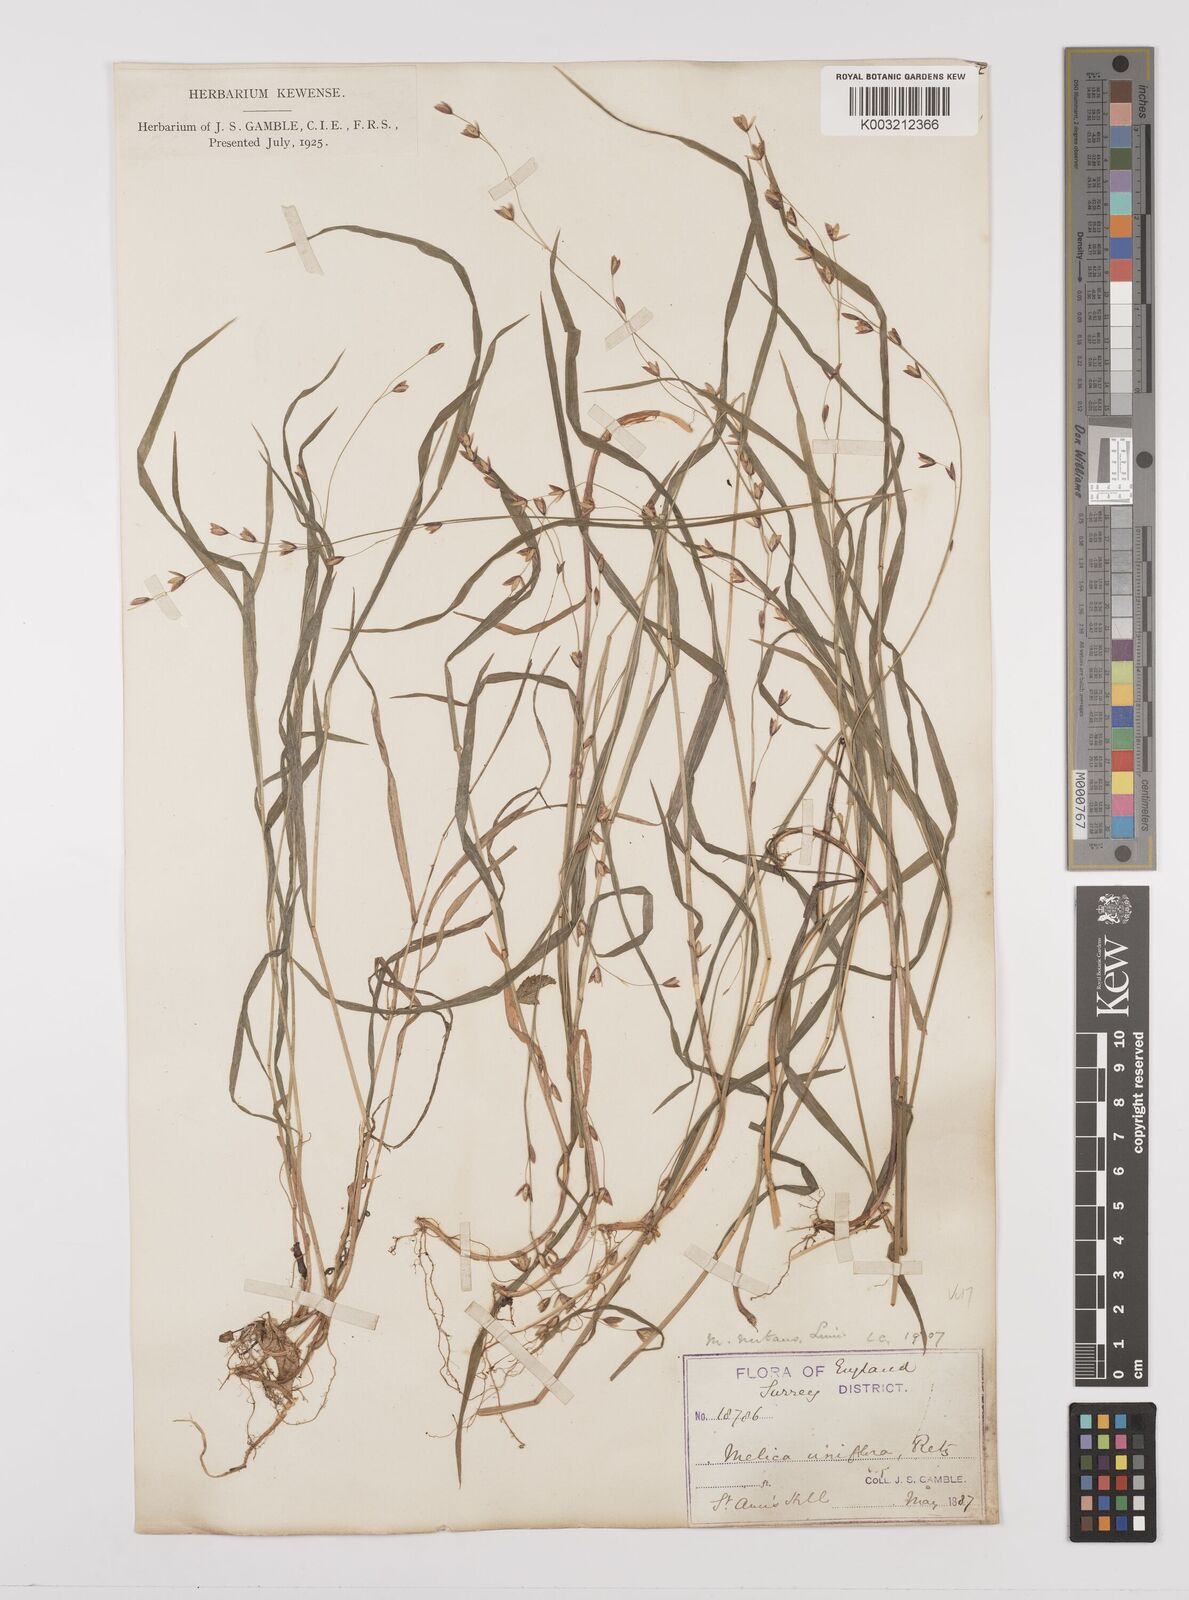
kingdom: Plantae
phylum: Tracheophyta
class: Liliopsida
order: Poales
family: Poaceae
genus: Melica
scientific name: Melica uniflora
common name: Wood melick
